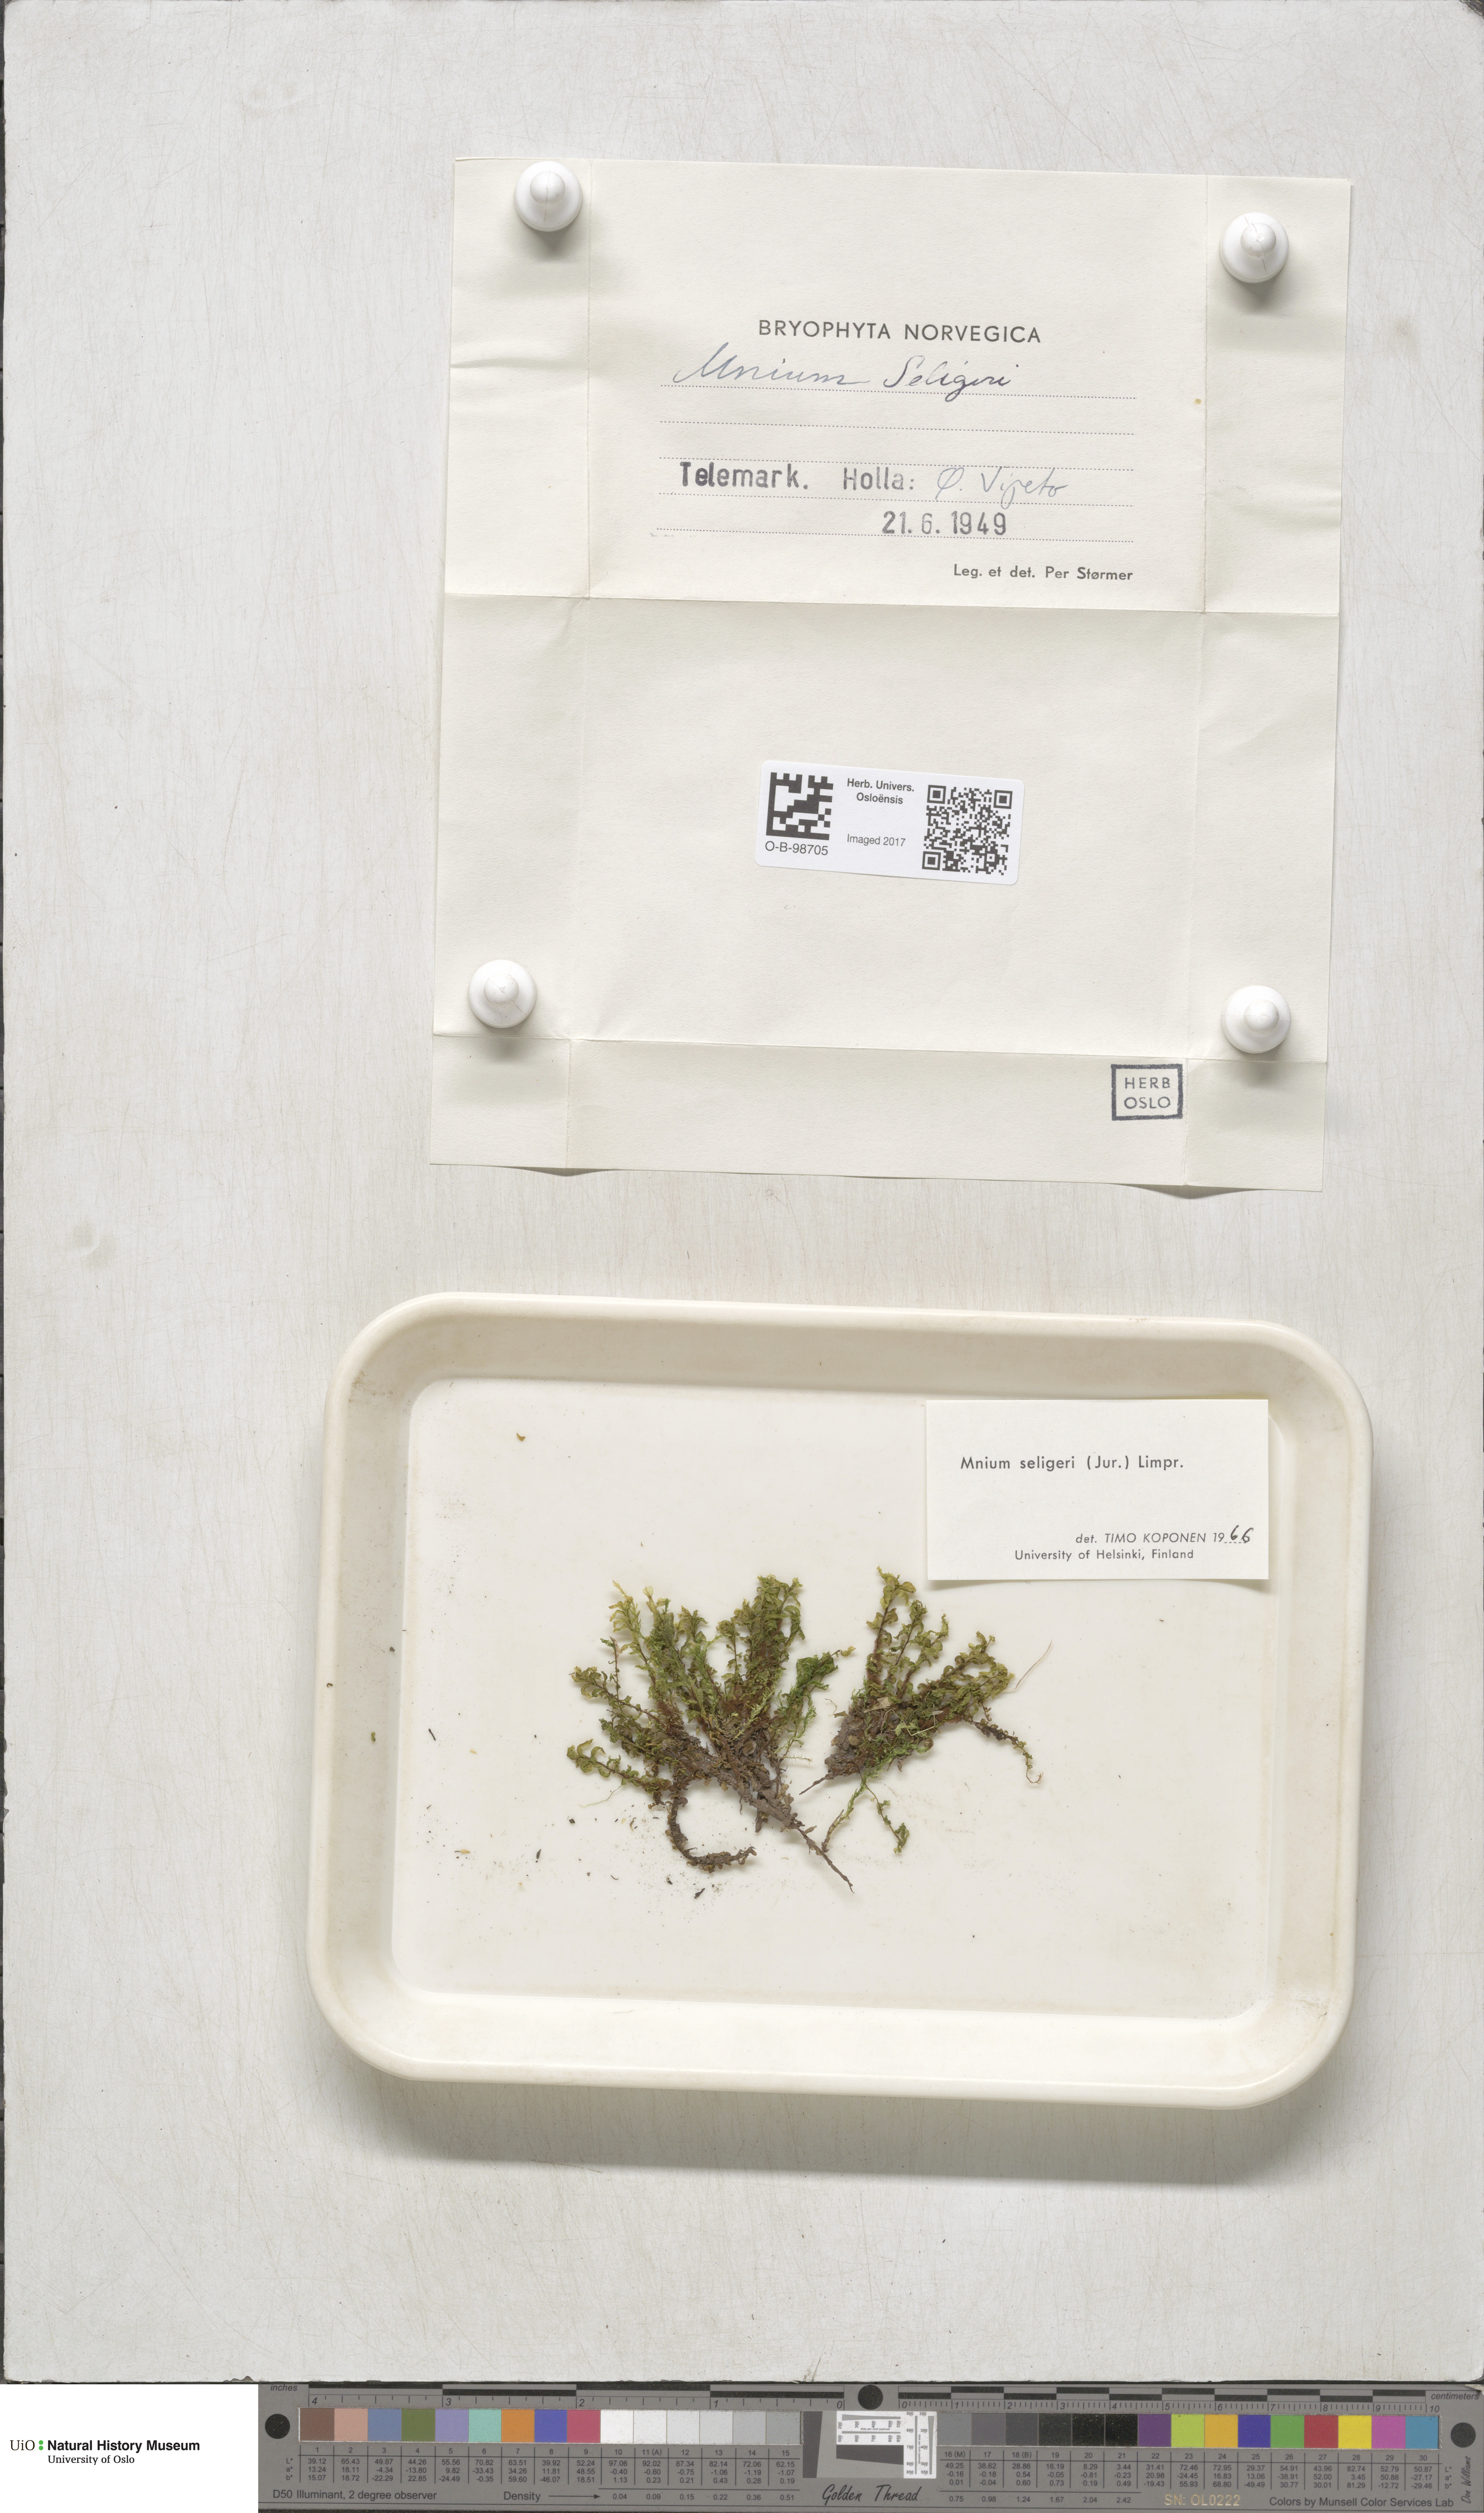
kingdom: Plantae
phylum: Bryophyta
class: Bryopsida
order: Bryales
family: Mniaceae
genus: Plagiomnium
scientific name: Plagiomnium elatum
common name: Tall thyme-moss
